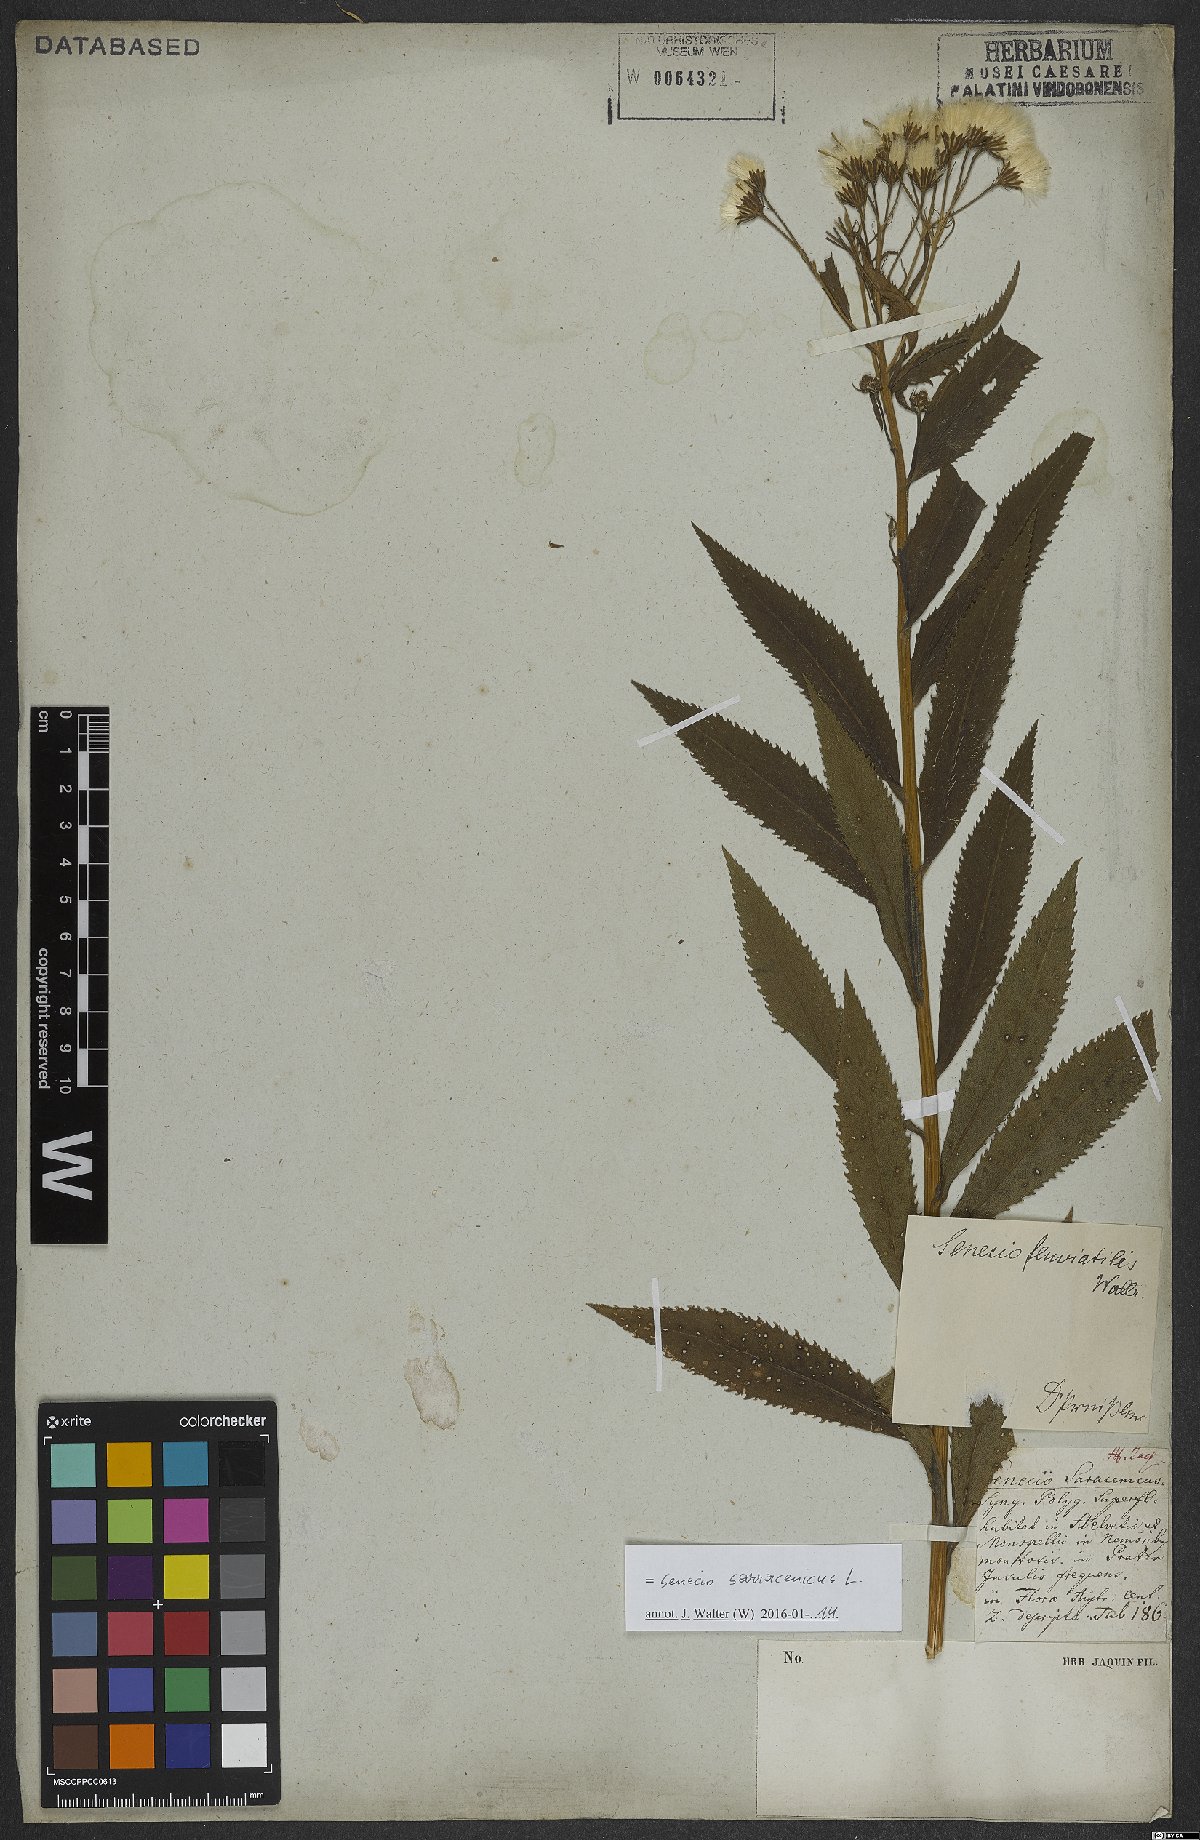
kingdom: Plantae
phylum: Tracheophyta
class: Magnoliopsida
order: Asterales
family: Asteraceae
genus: Senecio
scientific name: Senecio sarracenicus
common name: Broad-leaved ragwort
